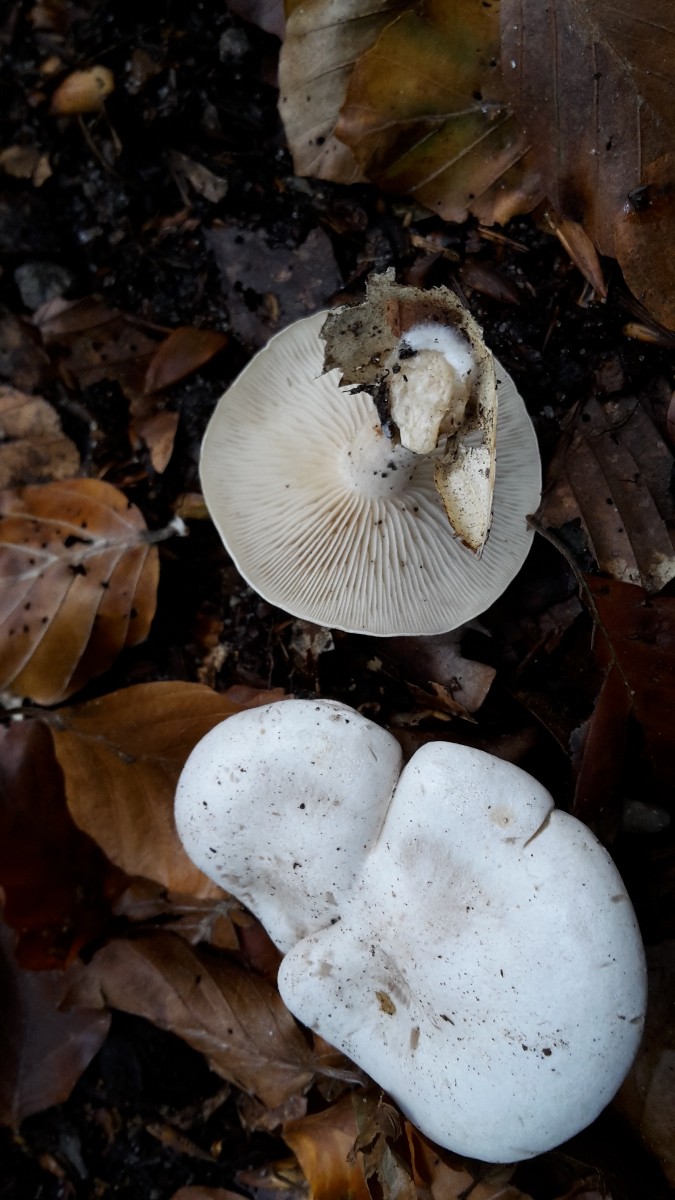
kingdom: Fungi
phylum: Basidiomycota
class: Agaricomycetes
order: Agaricales
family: Tricholomataceae
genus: Clitocybe
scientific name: Clitocybe phyllophila
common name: løv-tragthat
